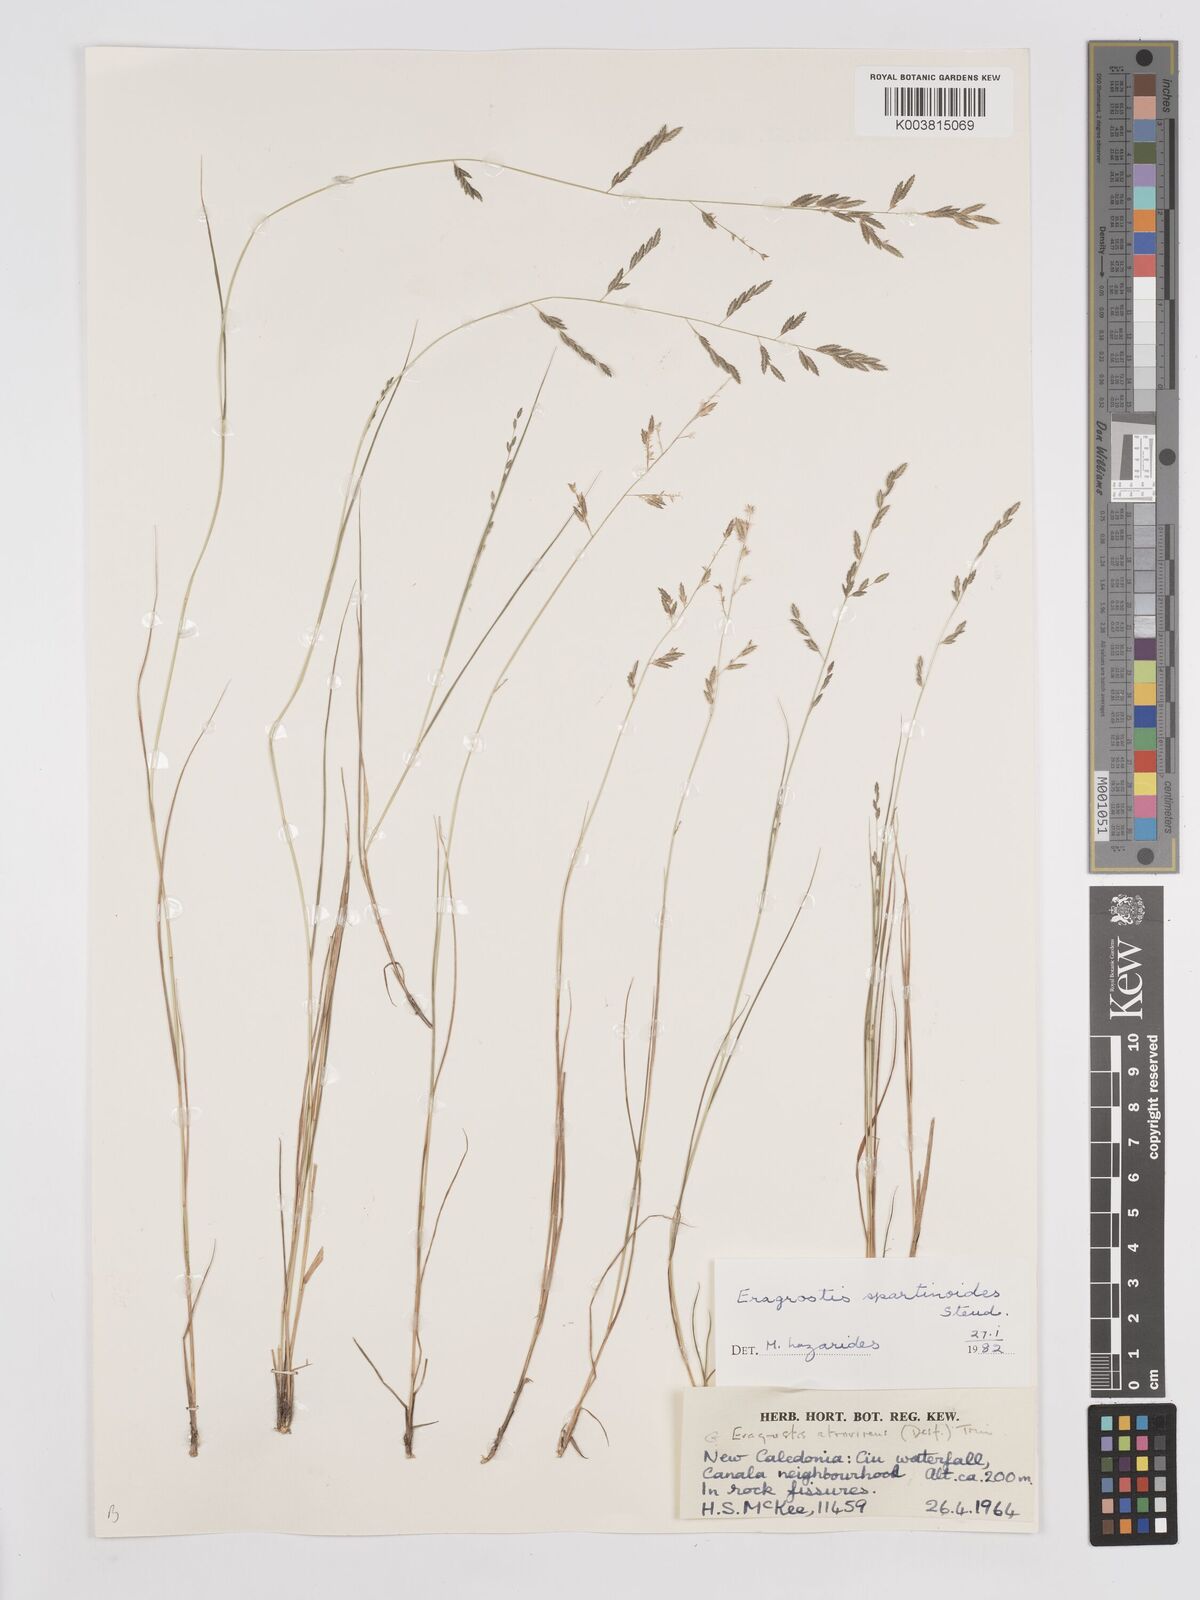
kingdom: Plantae
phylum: Tracheophyta
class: Liliopsida
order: Poales
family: Poaceae
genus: Eragrostis
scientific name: Eragrostis brownii
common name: Lovegrass
